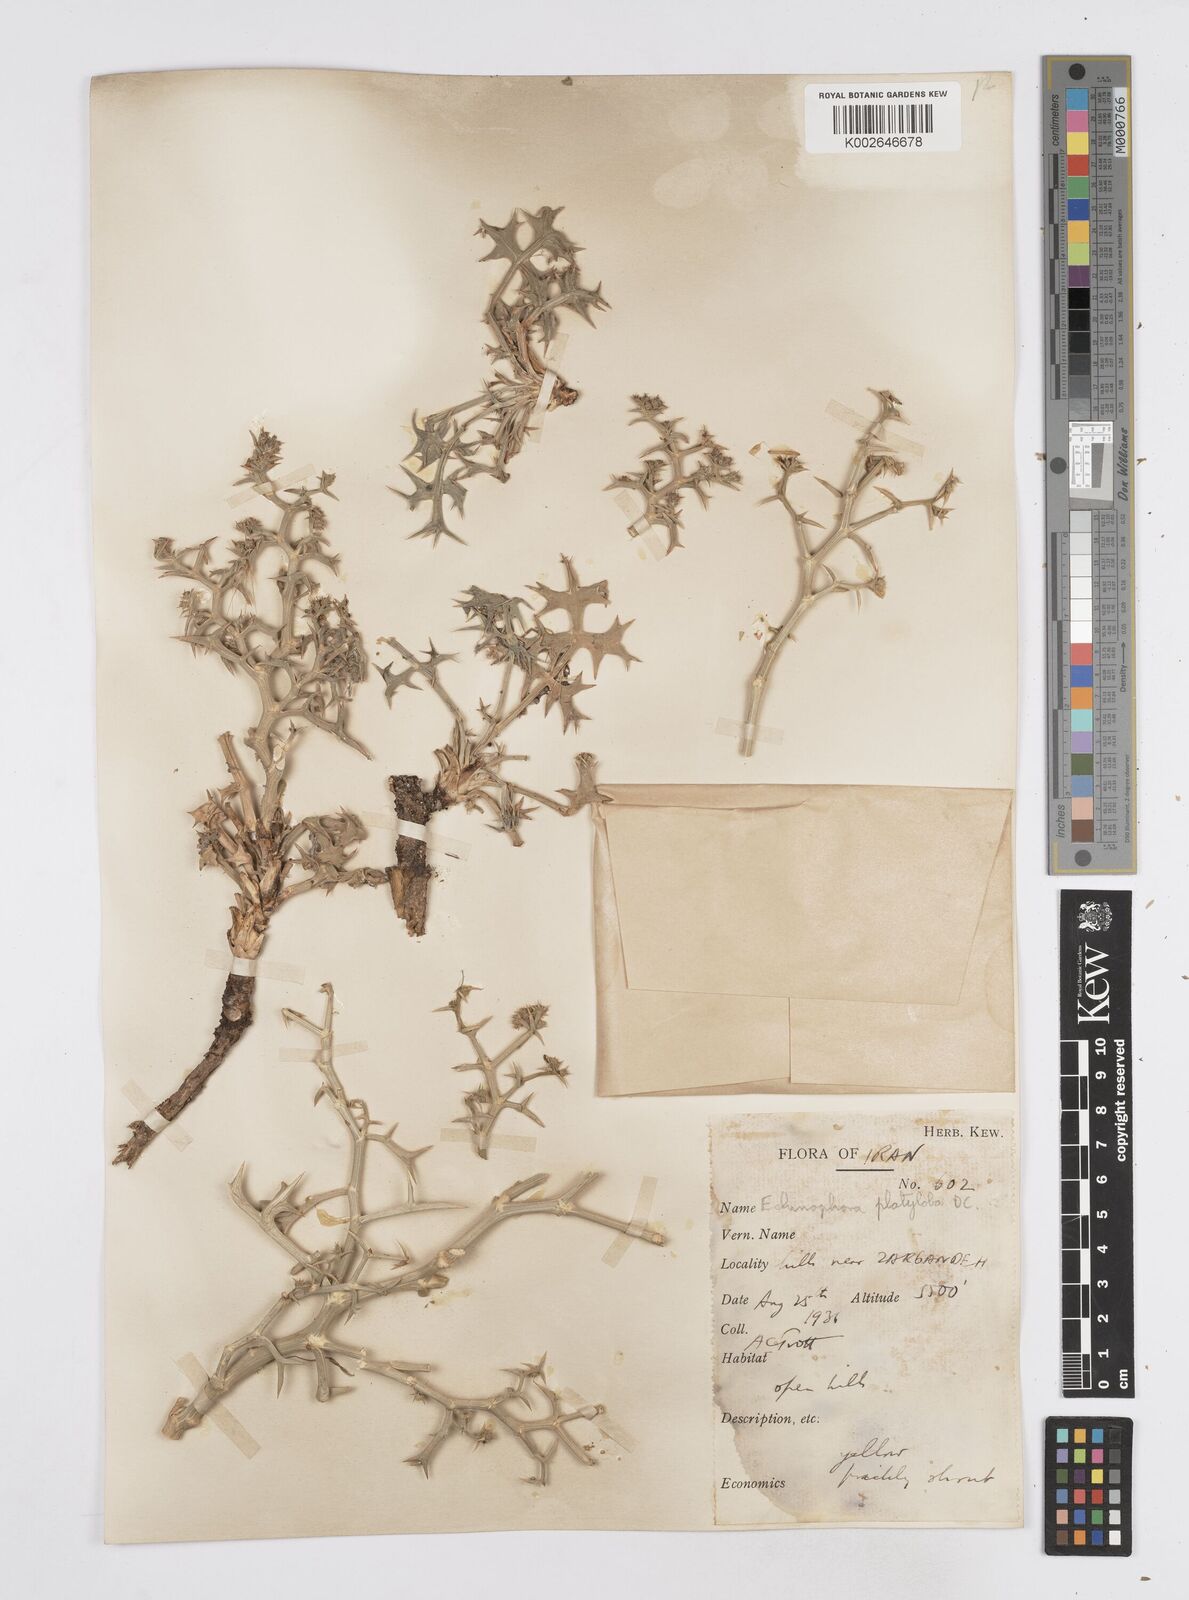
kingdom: Plantae
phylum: Tracheophyta
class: Magnoliopsida
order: Apiales
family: Apiaceae
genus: Echinophora
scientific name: Echinophora platyloba
